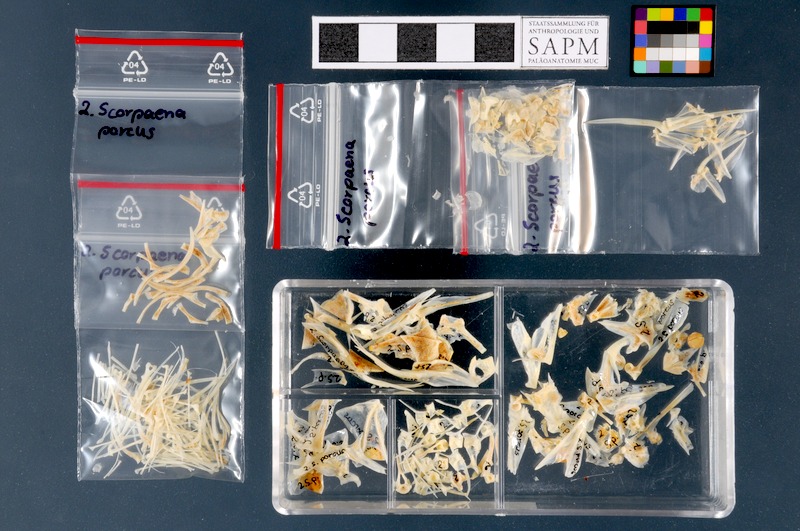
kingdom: Animalia
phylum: Chordata
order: Scorpaeniformes
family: Scorpaenidae
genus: Scorpaena
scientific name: Scorpaena porcus
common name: Black scorpionfish
